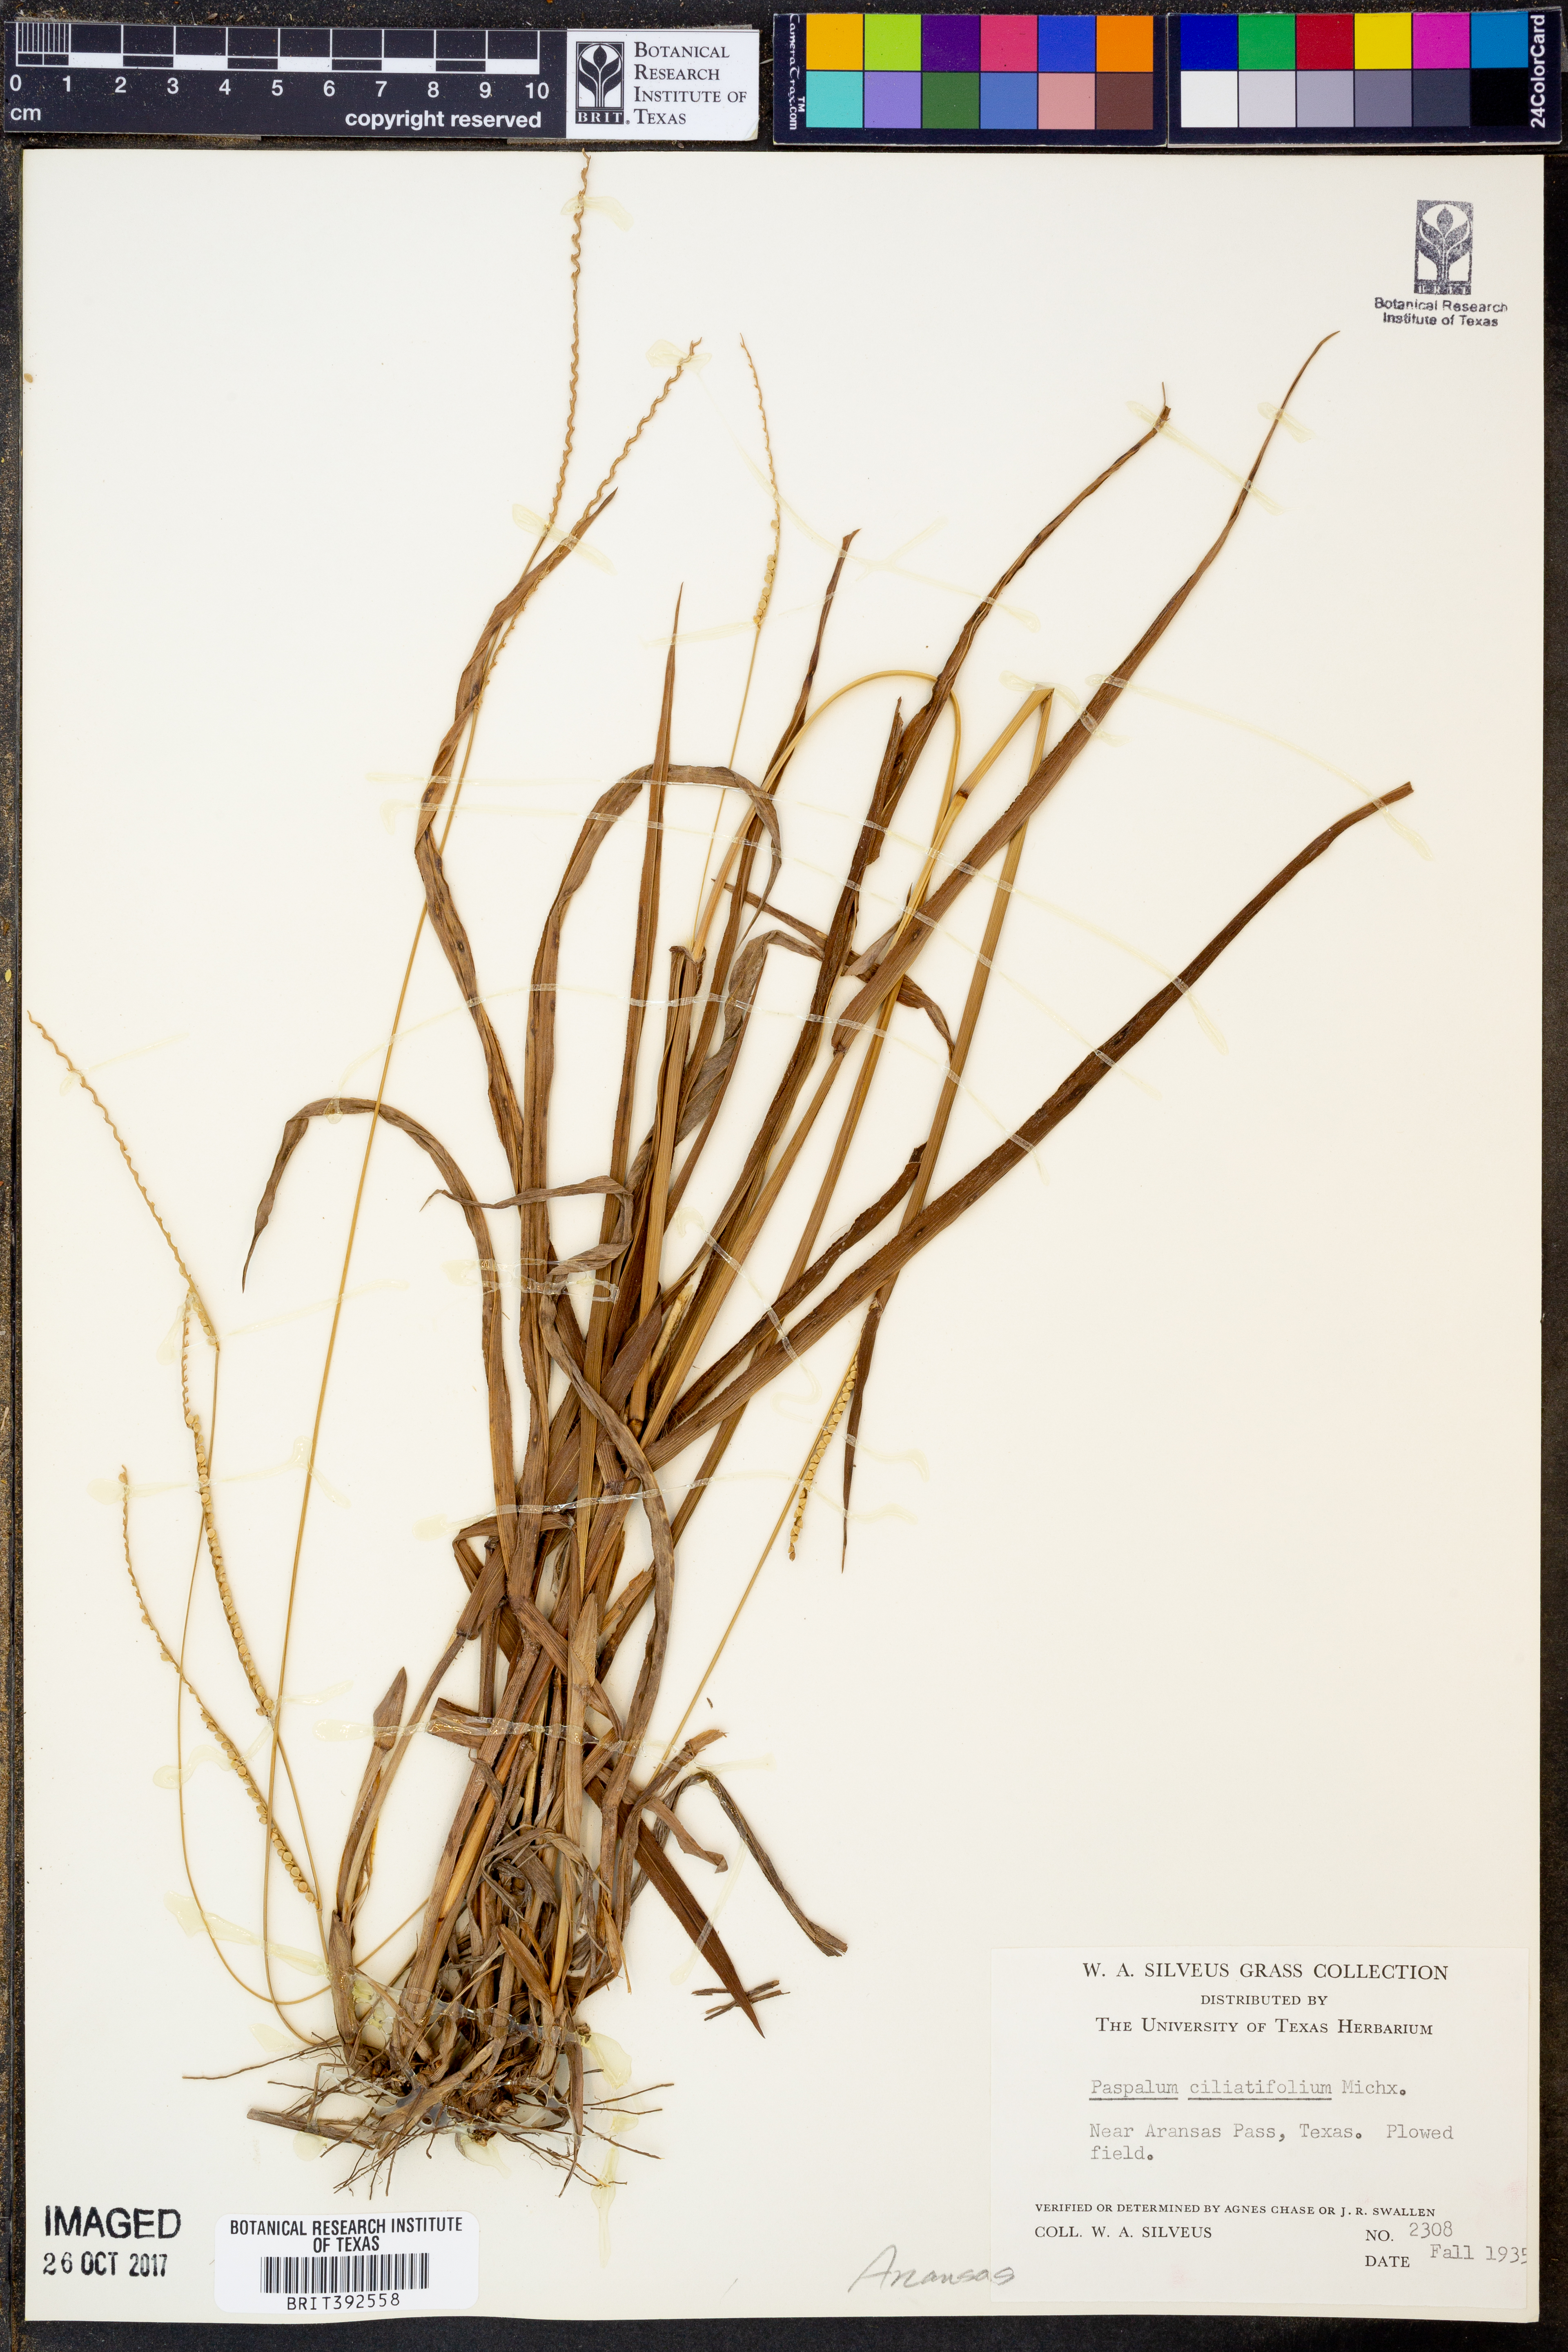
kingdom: Plantae
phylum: Tracheophyta
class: Liliopsida
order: Poales
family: Poaceae
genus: Paspalum
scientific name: Paspalum setaceum
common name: Slender paspalum
